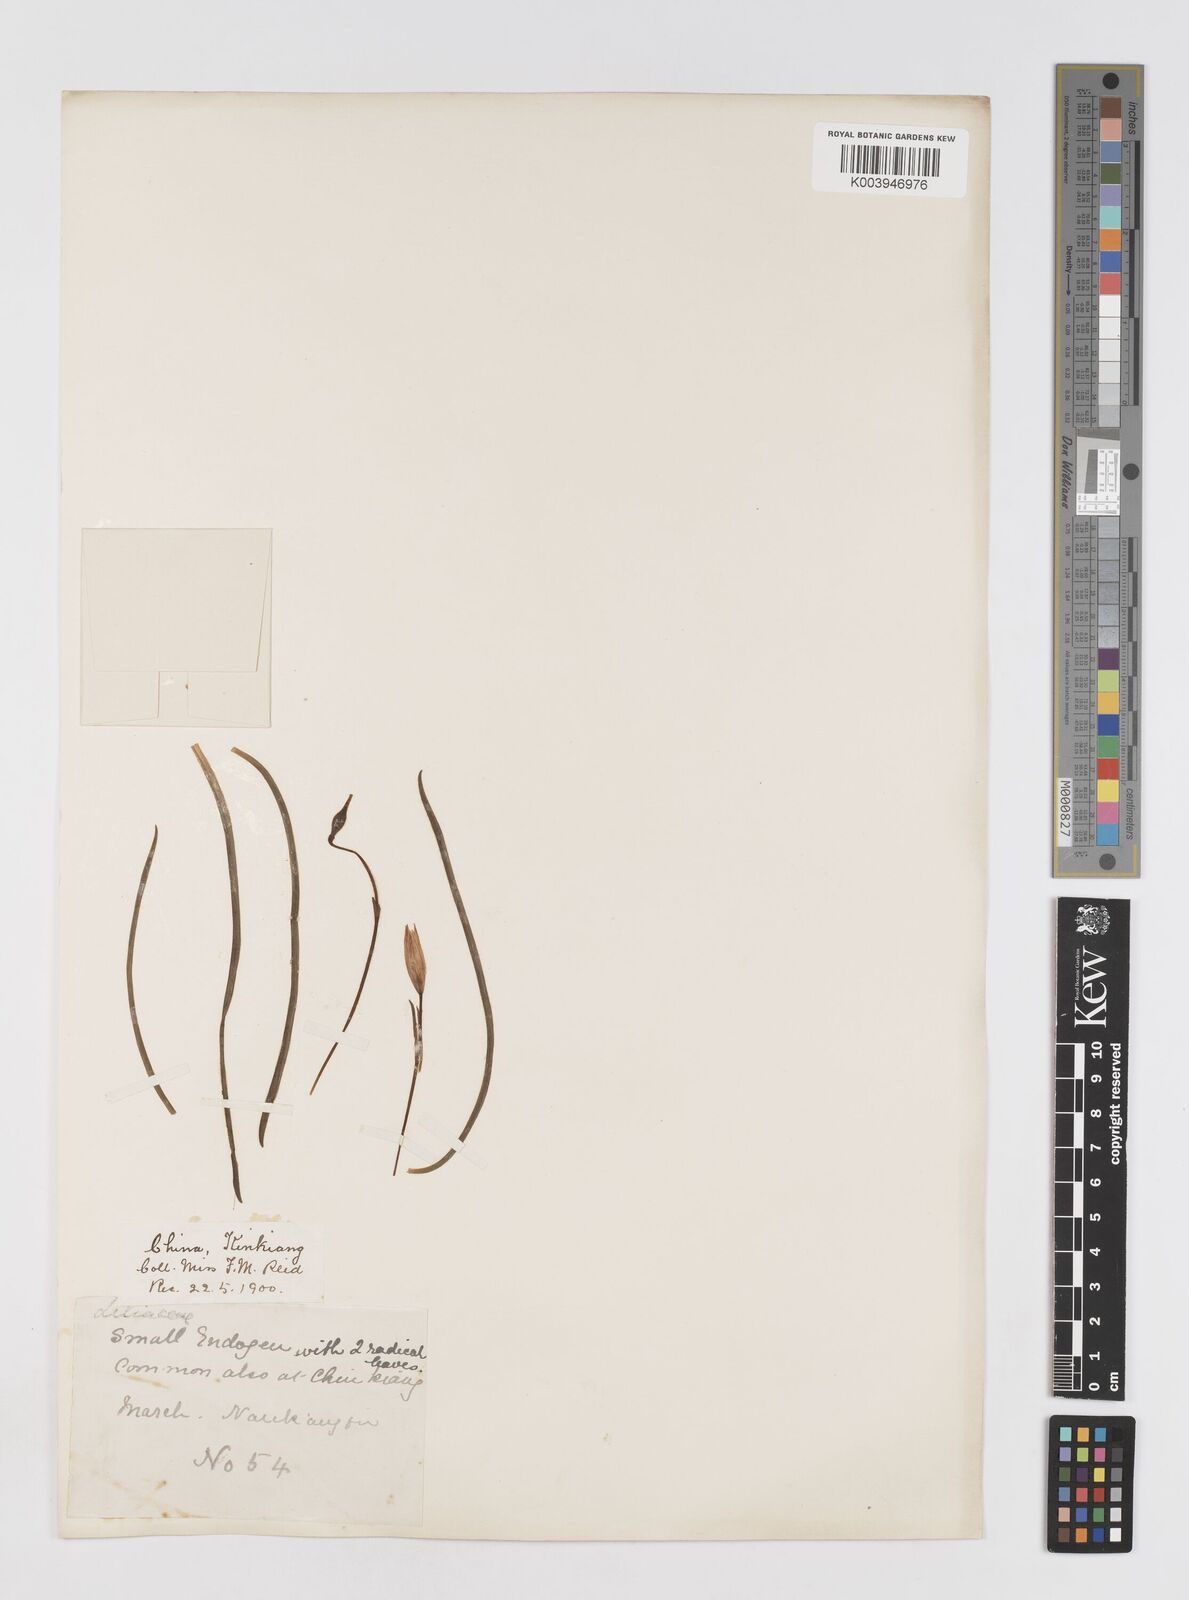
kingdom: Plantae
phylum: Tracheophyta
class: Liliopsida
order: Liliales
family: Liliaceae
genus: Amana
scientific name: Amana edulis
